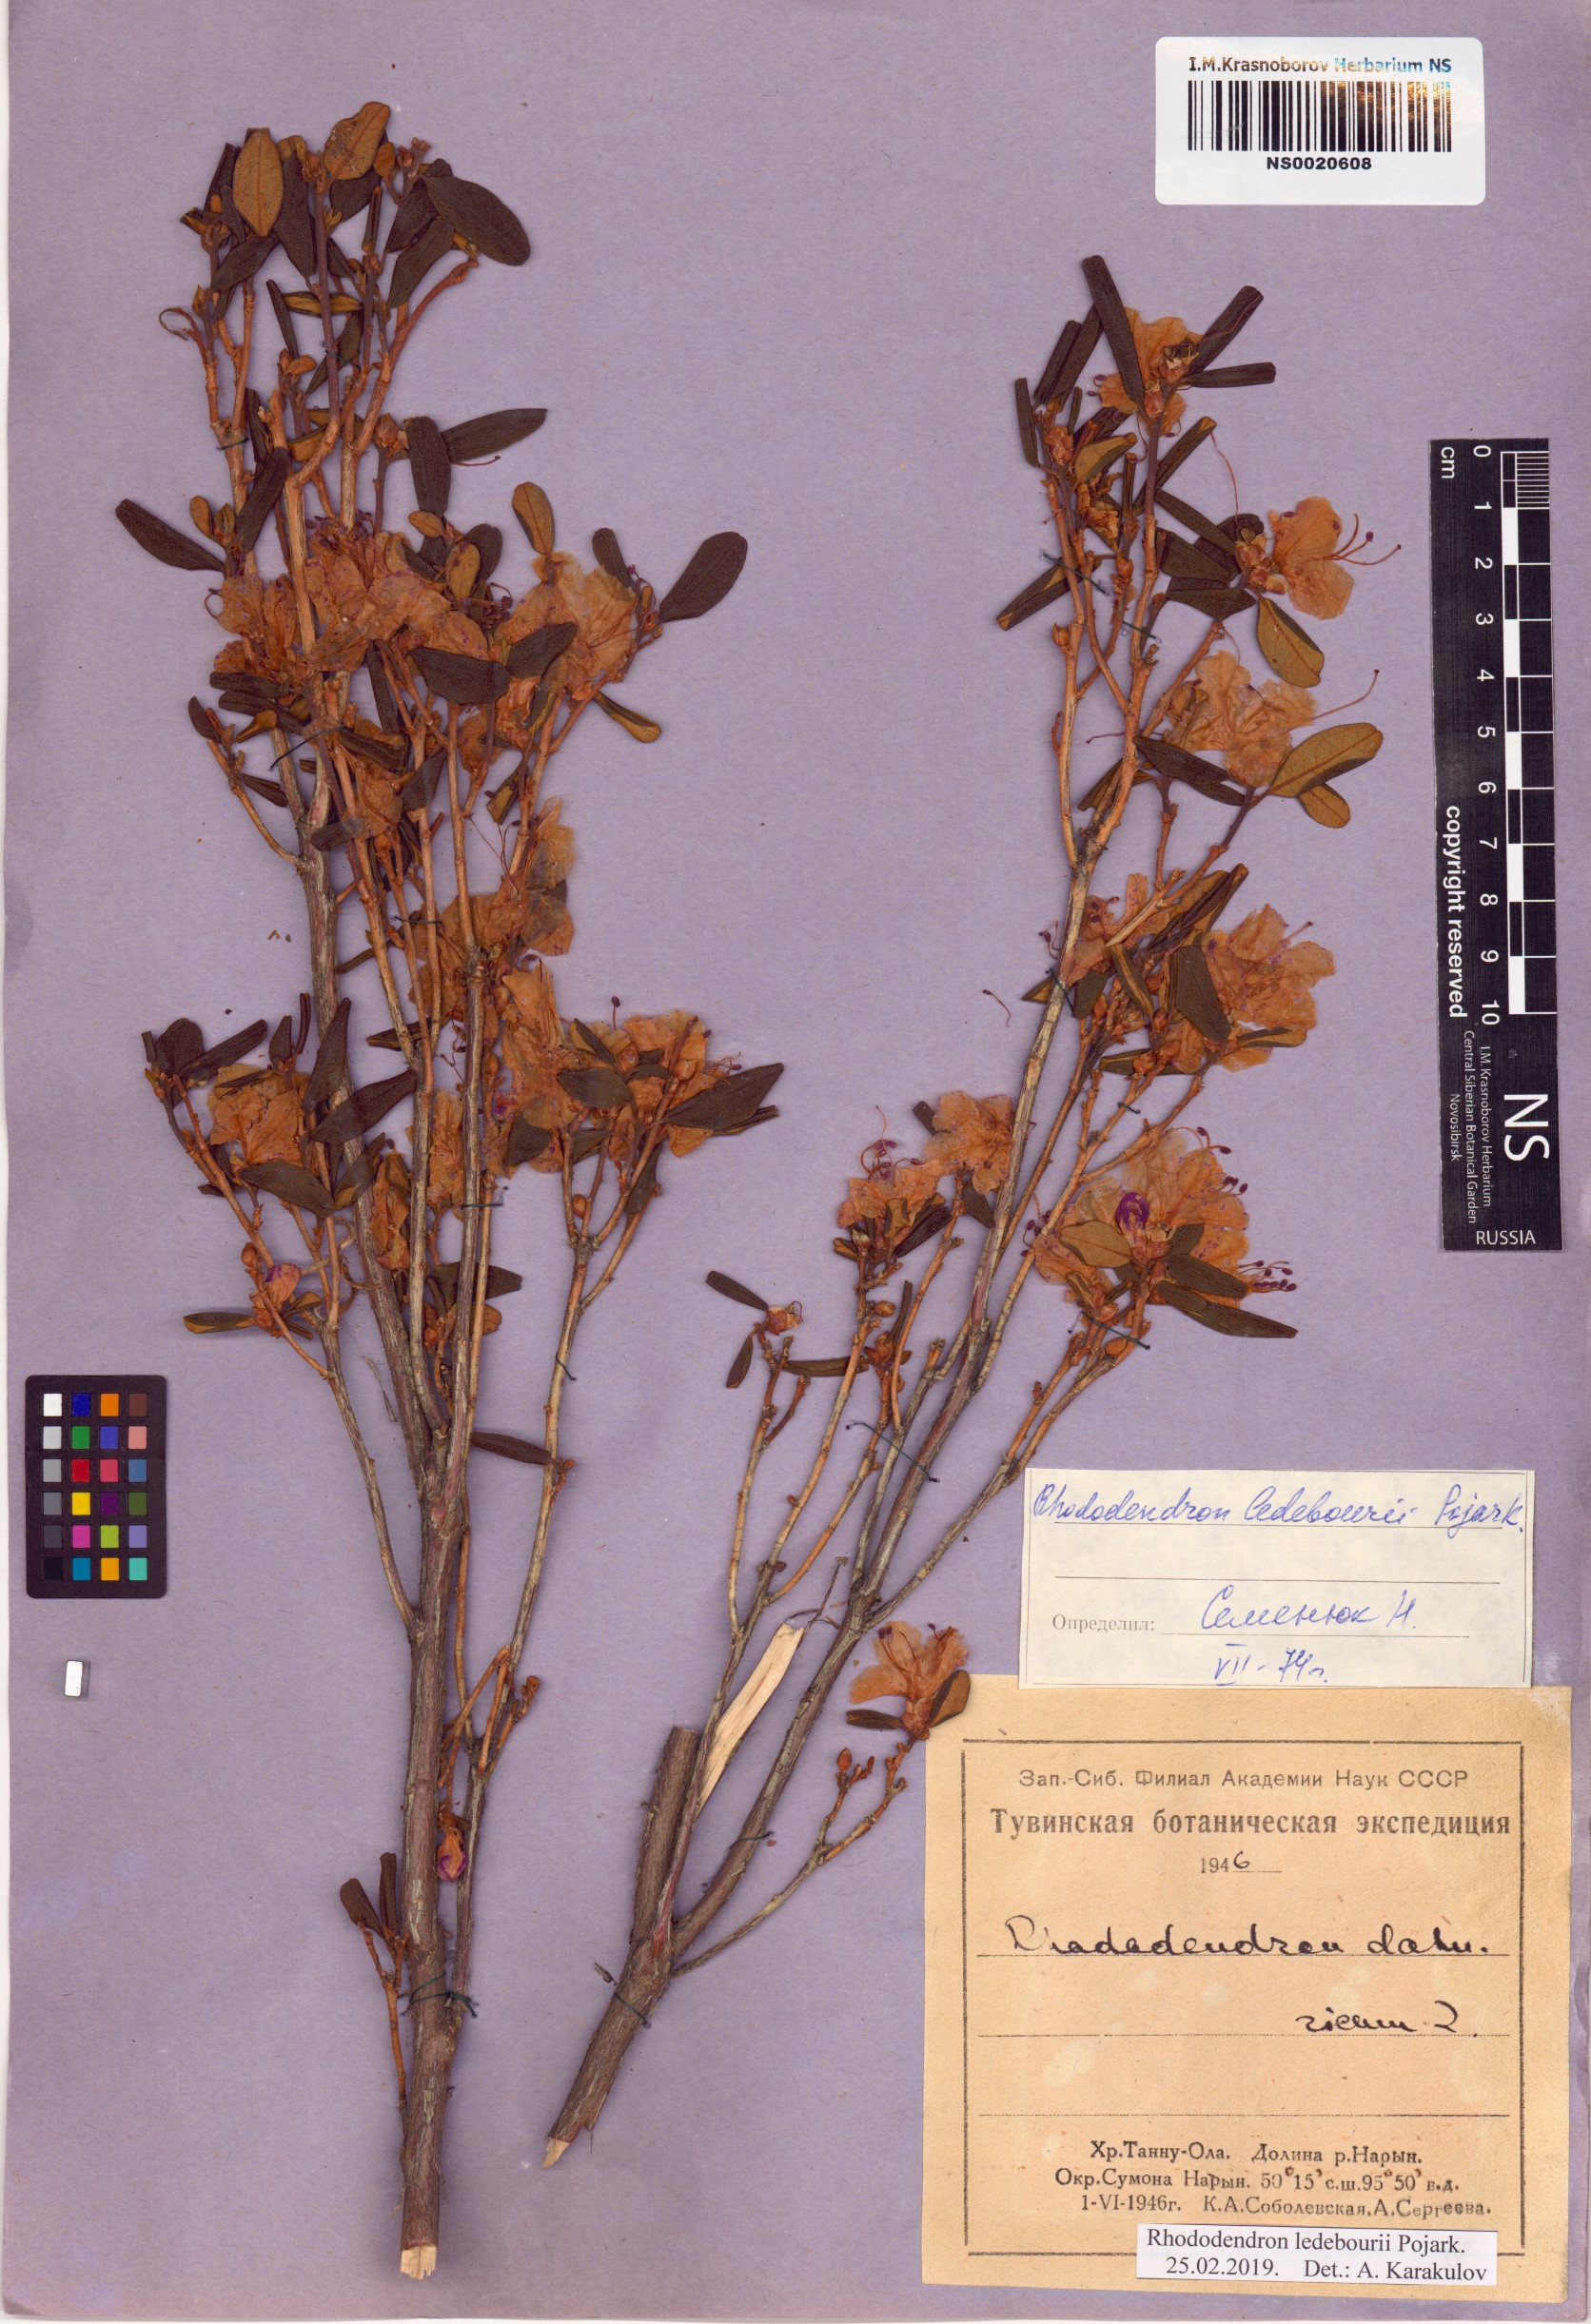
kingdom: Plantae
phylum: Tracheophyta
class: Magnoliopsida
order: Ericales
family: Ericaceae
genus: Rhododendron
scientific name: Rhododendron dauricum
